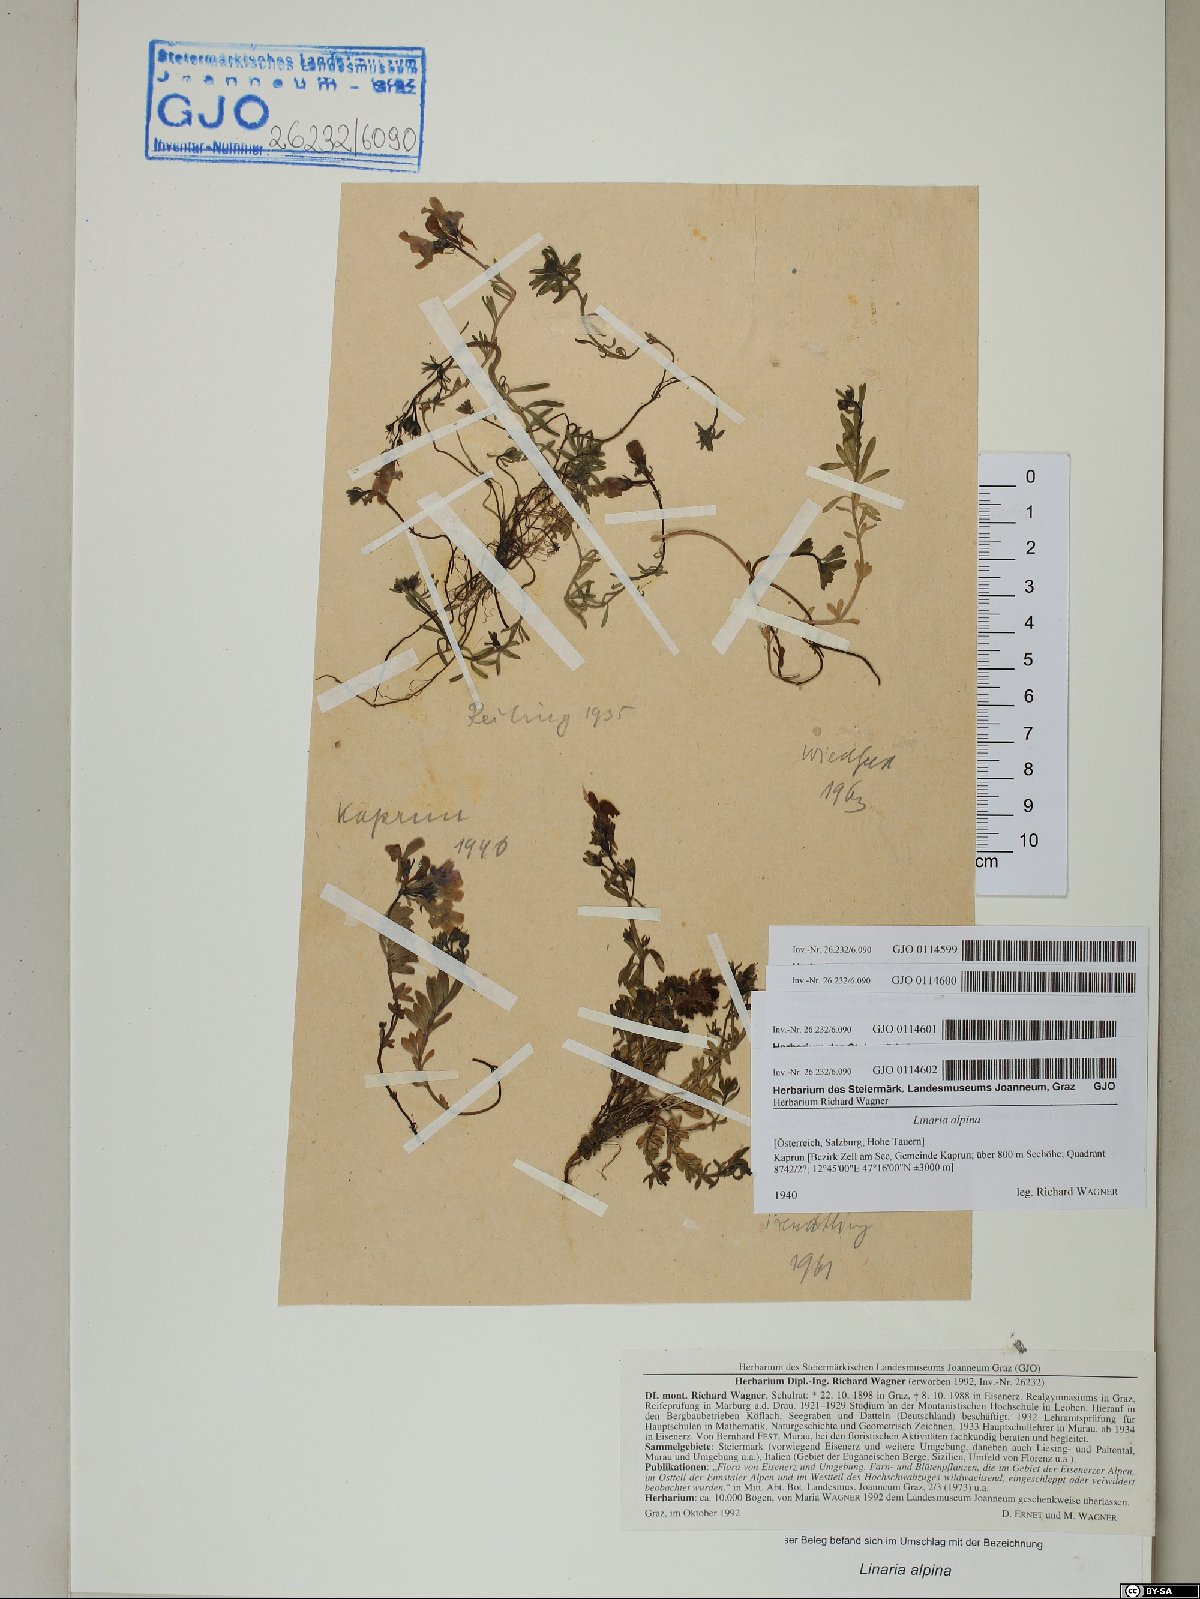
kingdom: Plantae
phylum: Tracheophyta
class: Magnoliopsida
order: Lamiales
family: Plantaginaceae
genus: Linaria
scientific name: Linaria alpina
